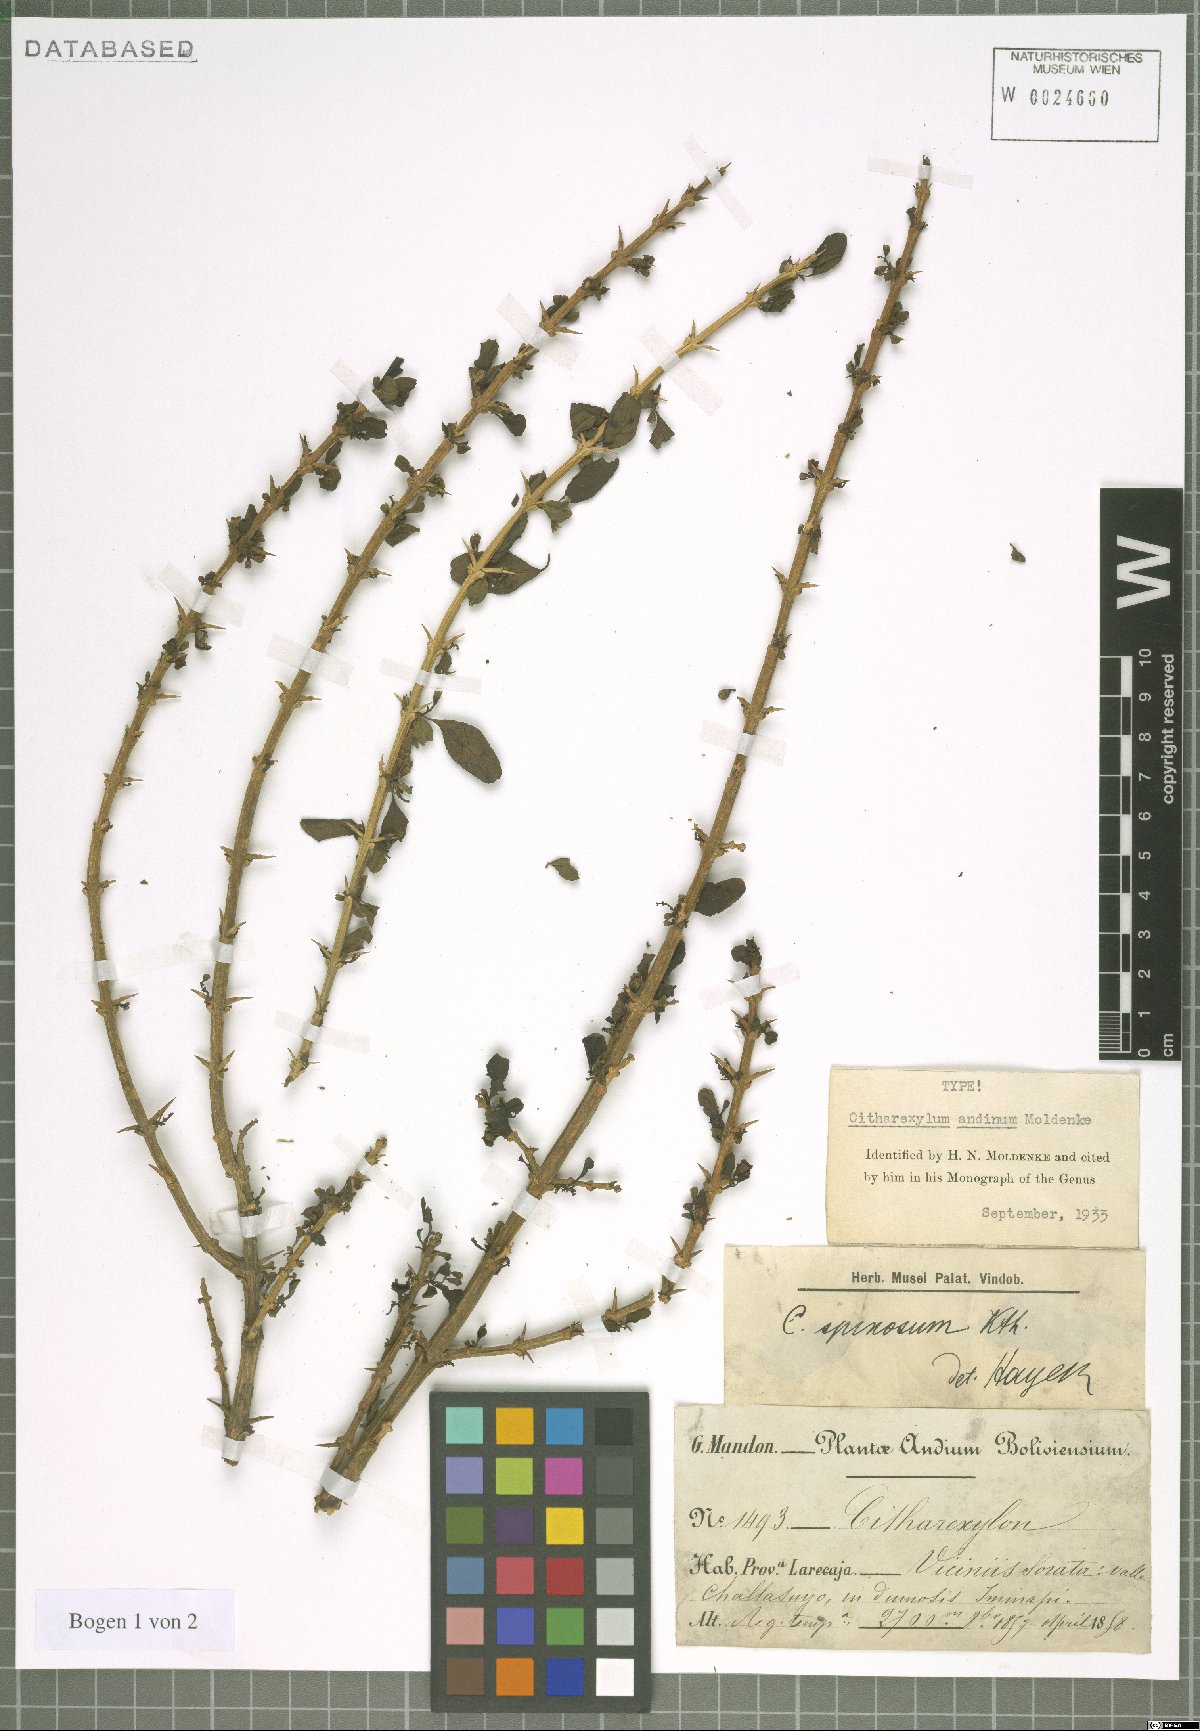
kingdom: Plantae
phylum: Tracheophyta
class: Magnoliopsida
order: Lamiales
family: Verbenaceae
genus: Citharexylum
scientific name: Citharexylum andinum
